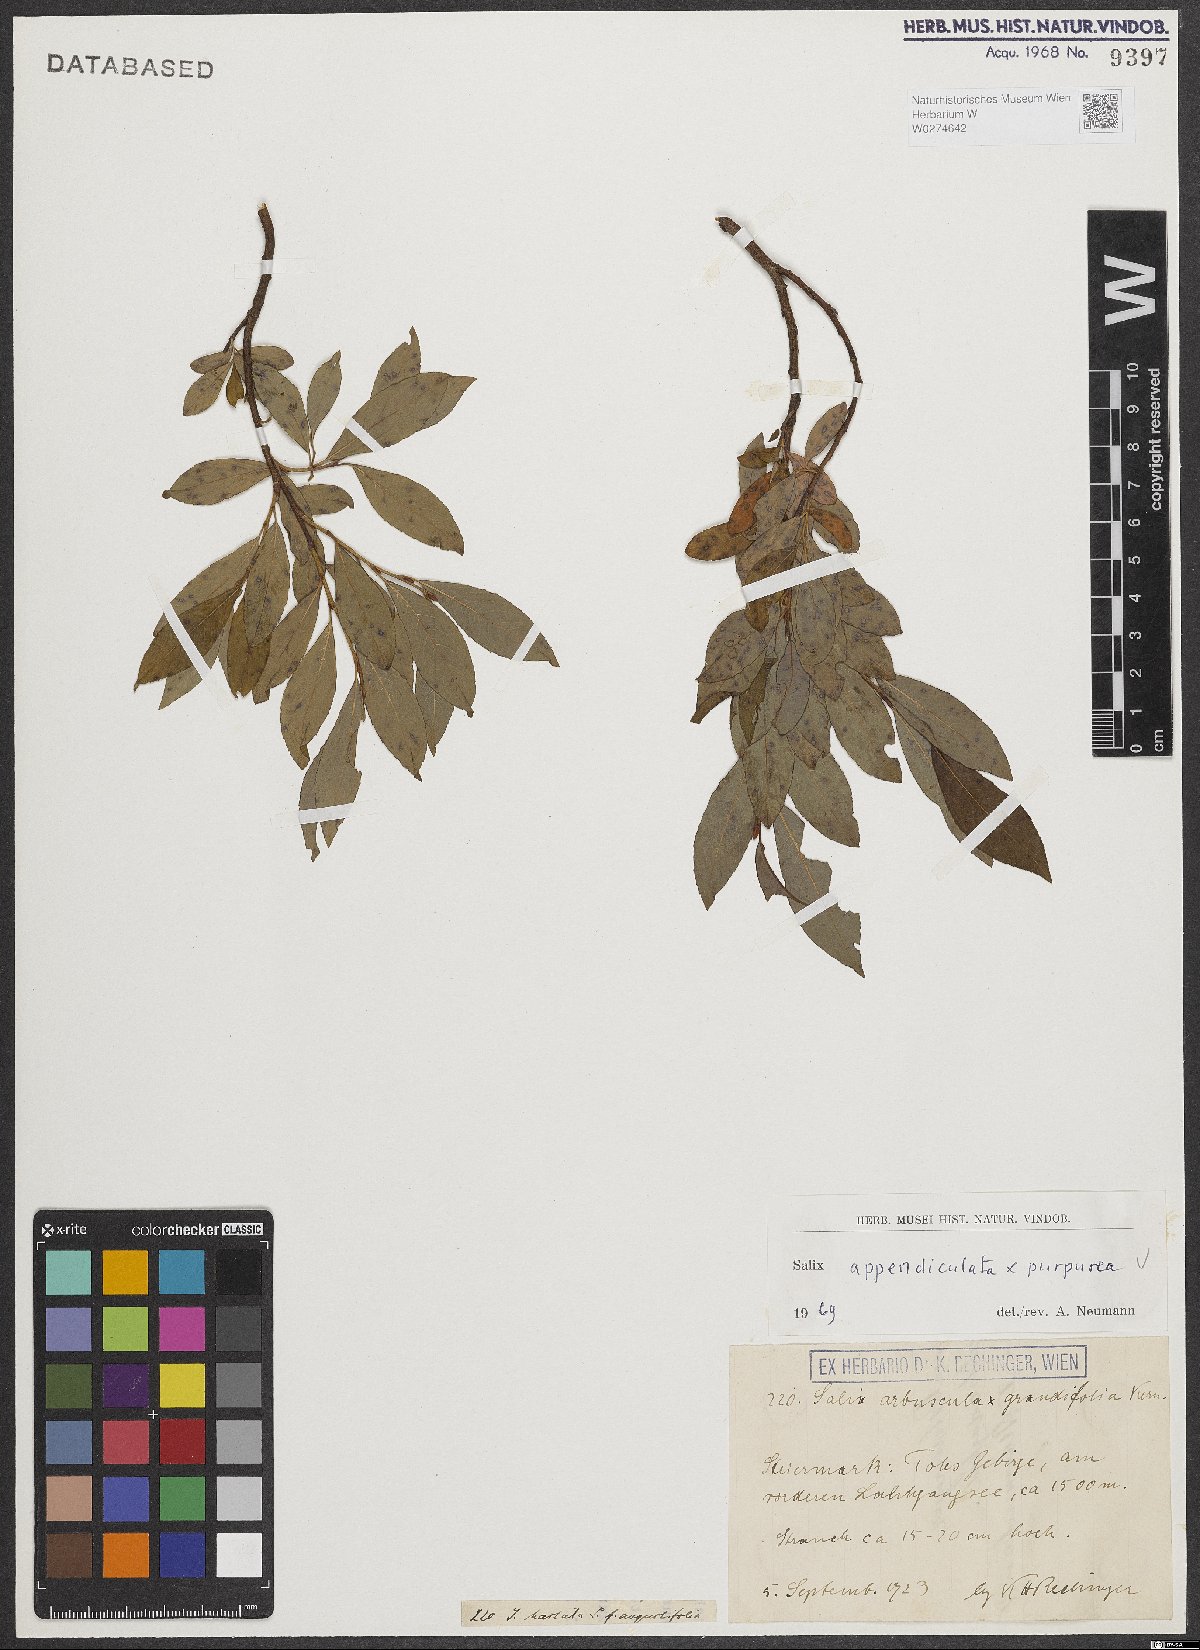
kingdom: Plantae
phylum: Tracheophyta
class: Magnoliopsida
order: Malpighiales
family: Salicaceae
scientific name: Salicaceae
